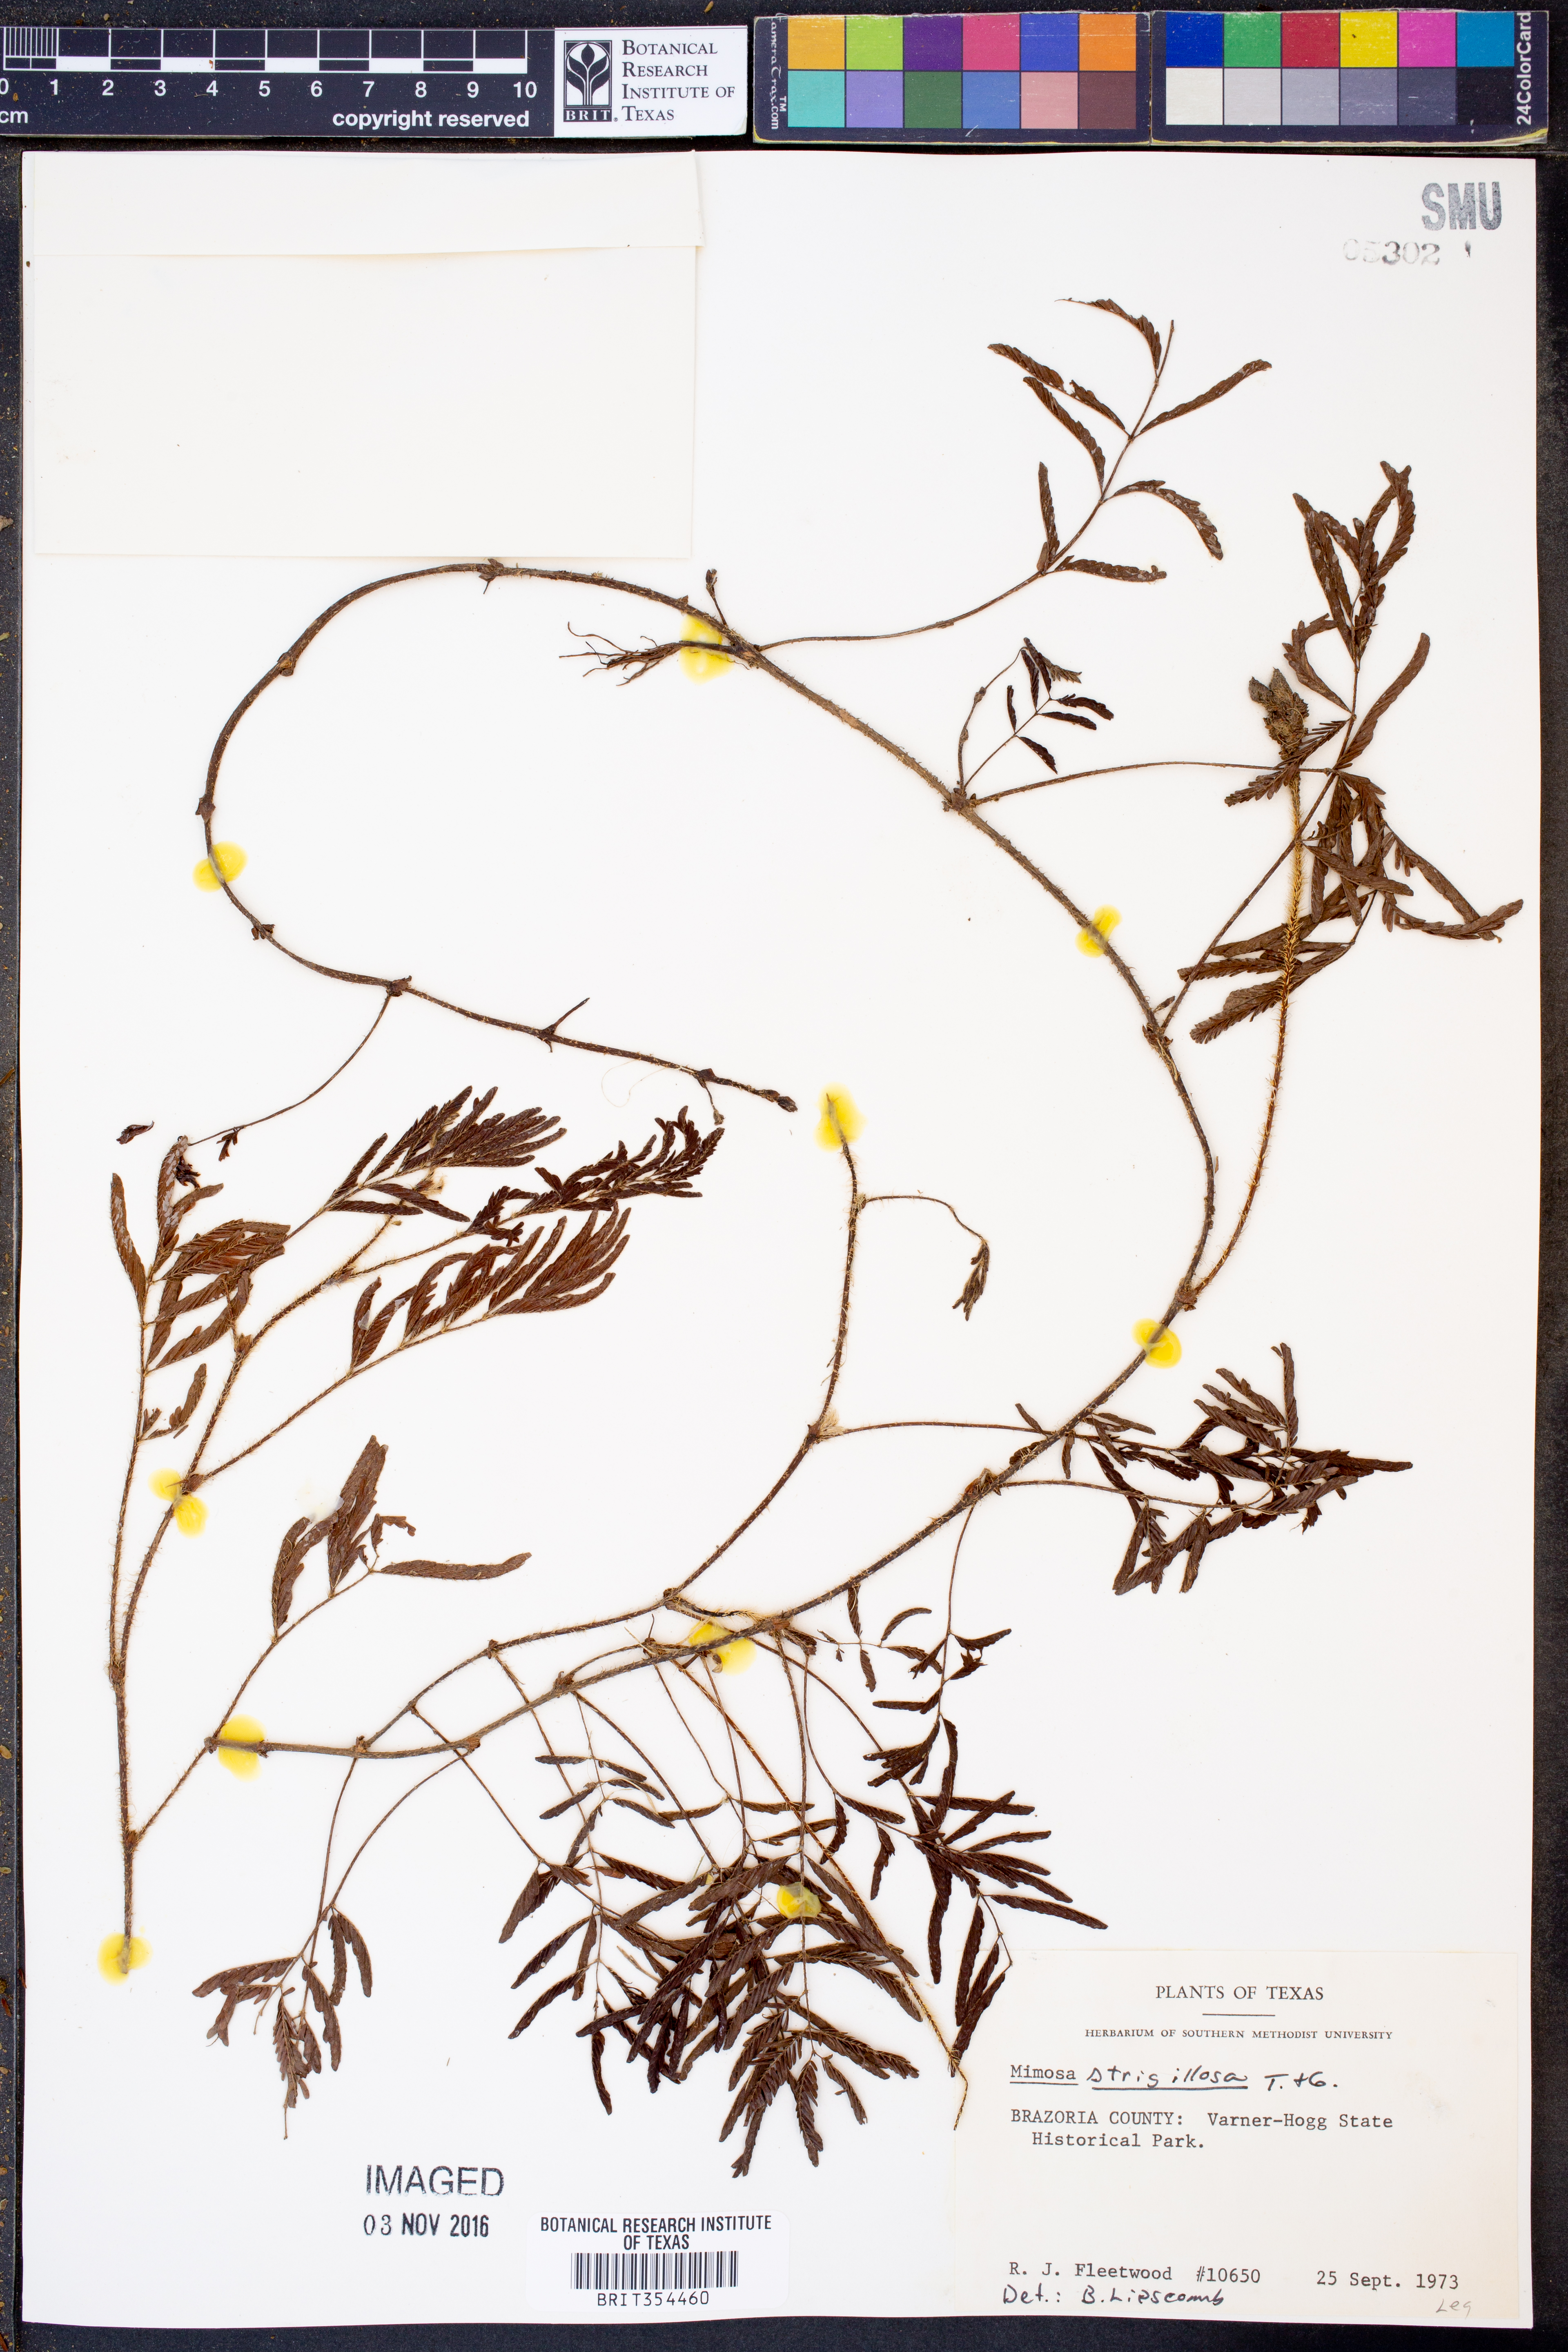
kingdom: Plantae
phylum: Tracheophyta
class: Magnoliopsida
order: Fabales
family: Fabaceae
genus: Mimosa
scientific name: Mimosa strigillosa
